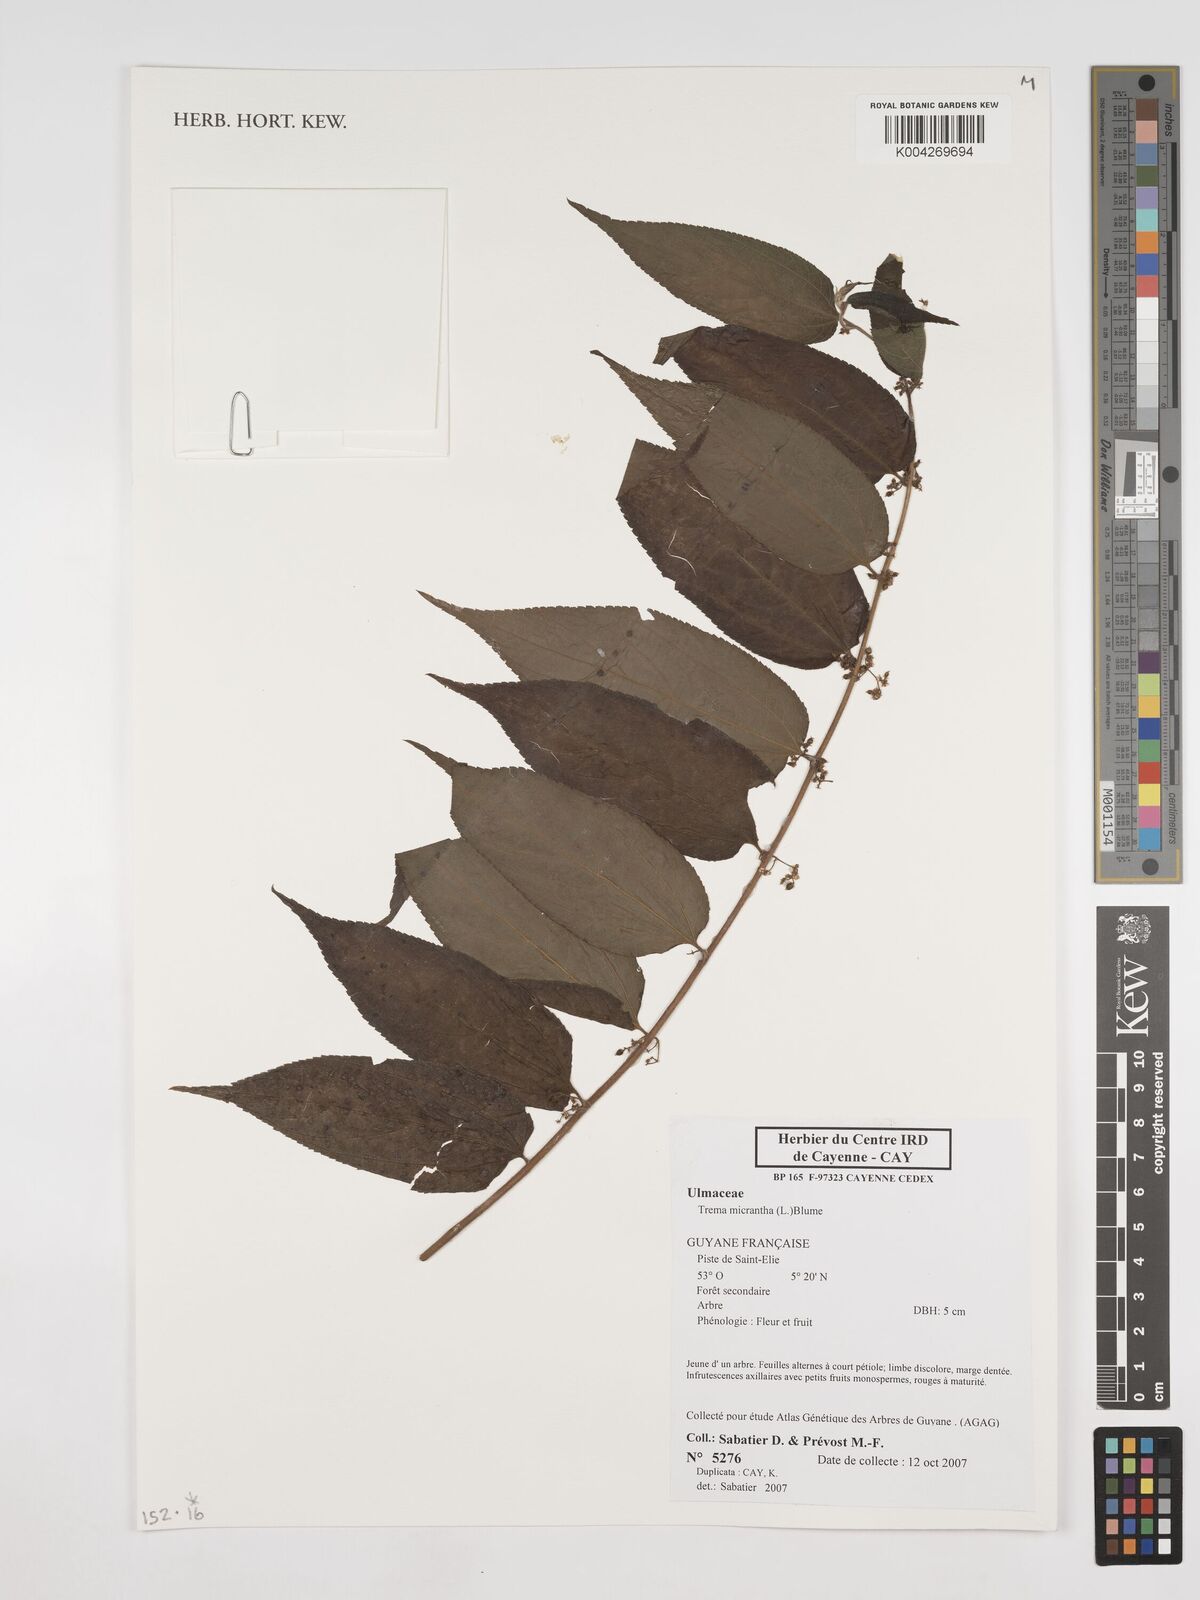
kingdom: Plantae
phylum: Tracheophyta
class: Magnoliopsida
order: Rosales
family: Cannabaceae
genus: Trema
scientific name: Trema micranthum
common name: Jamaican nettletree
